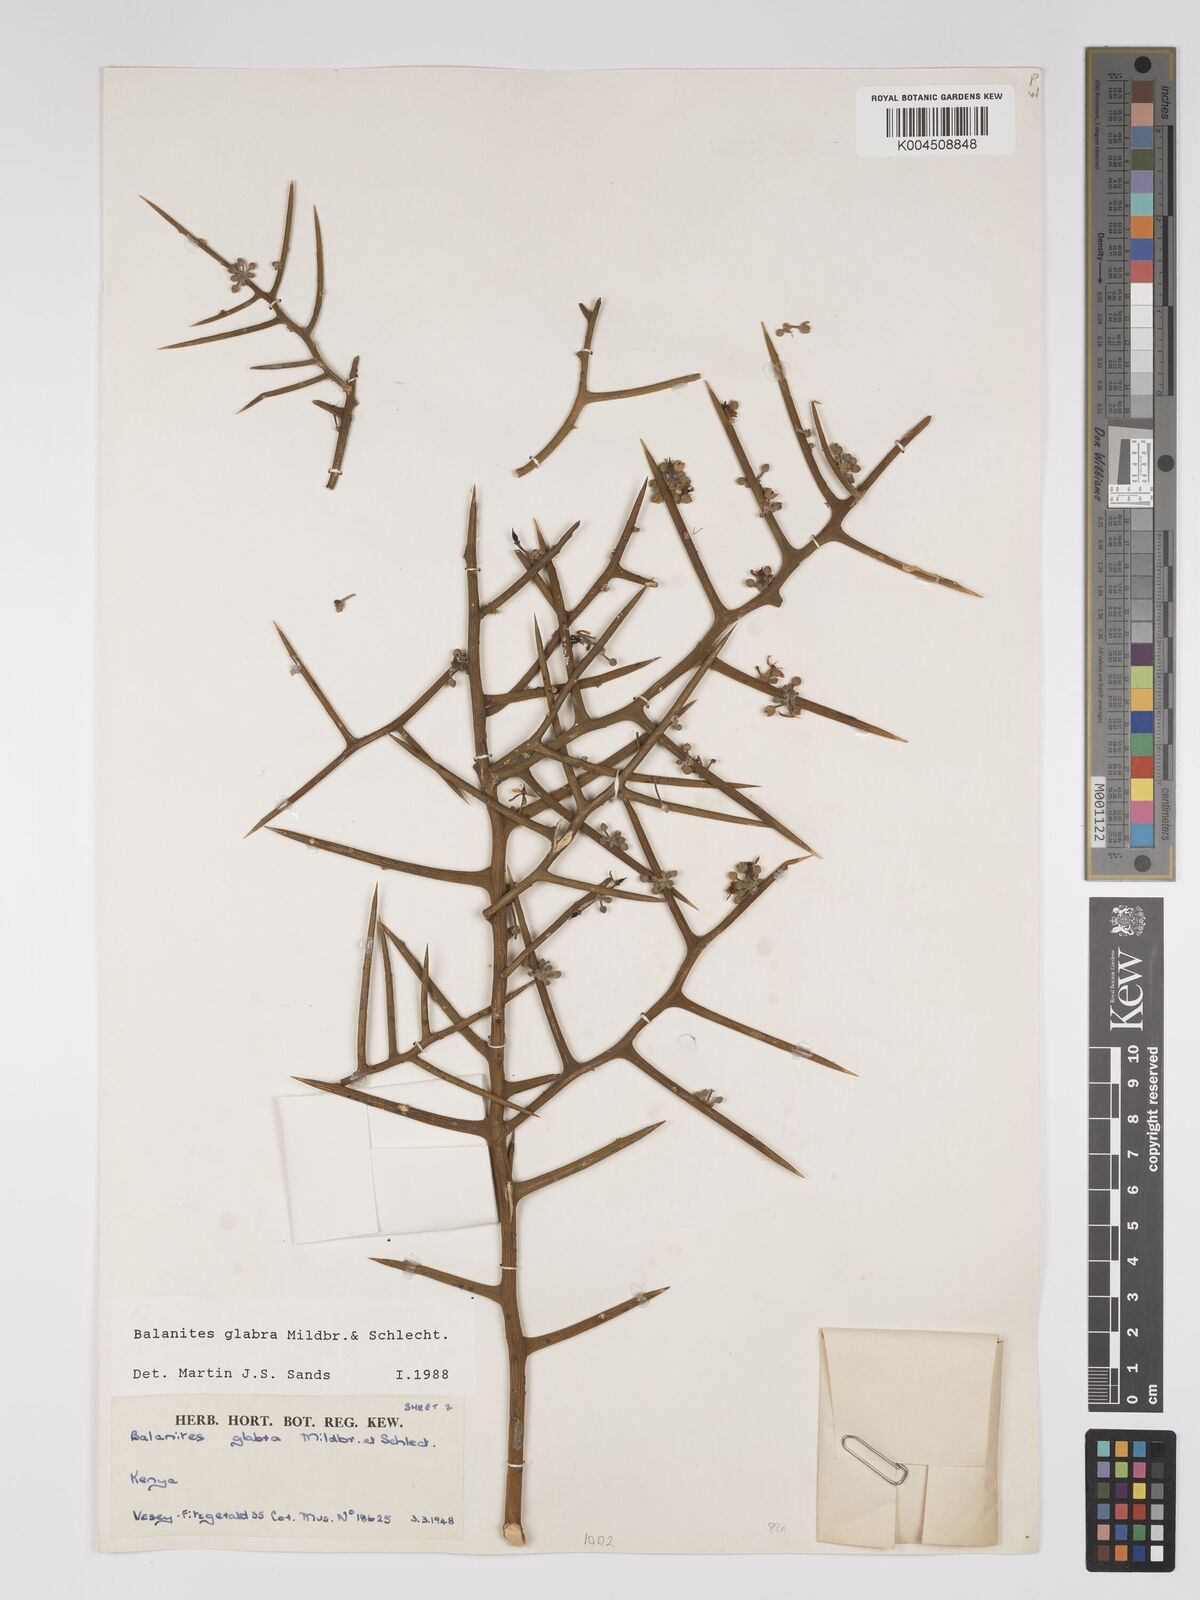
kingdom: Plantae
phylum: Tracheophyta
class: Magnoliopsida
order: Zygophyllales
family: Zygophyllaceae
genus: Balanites
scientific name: Balanites glabra
